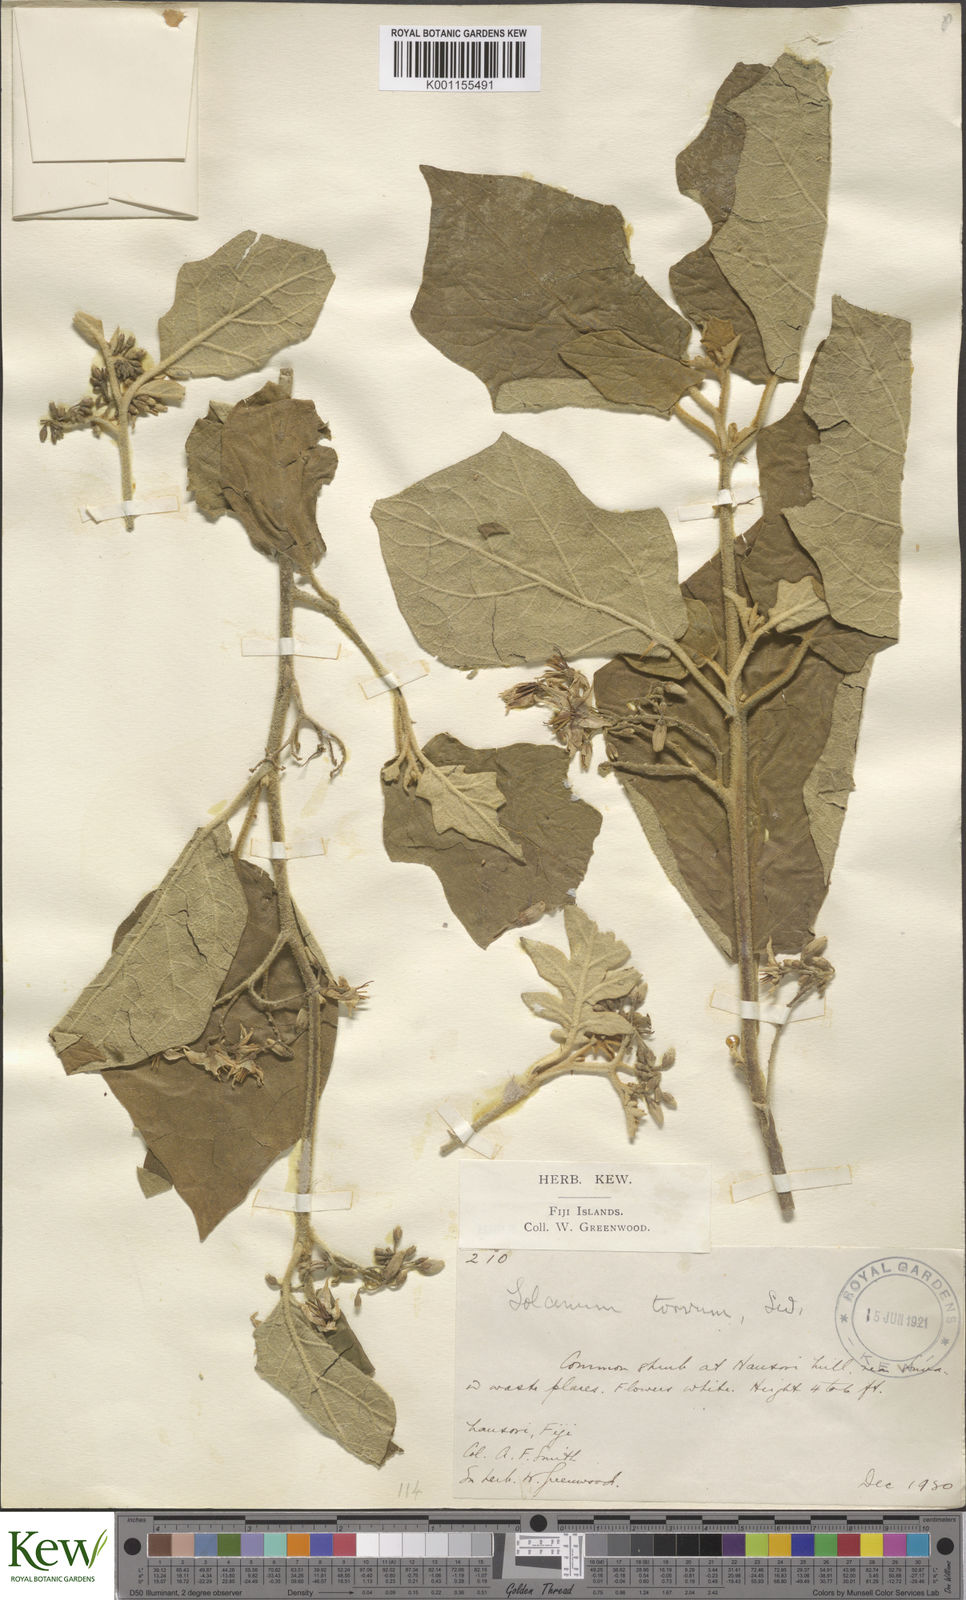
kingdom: Plantae
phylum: Tracheophyta
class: Magnoliopsida
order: Solanales
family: Solanaceae
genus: Solanum
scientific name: Solanum torvum
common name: Turkey berry
